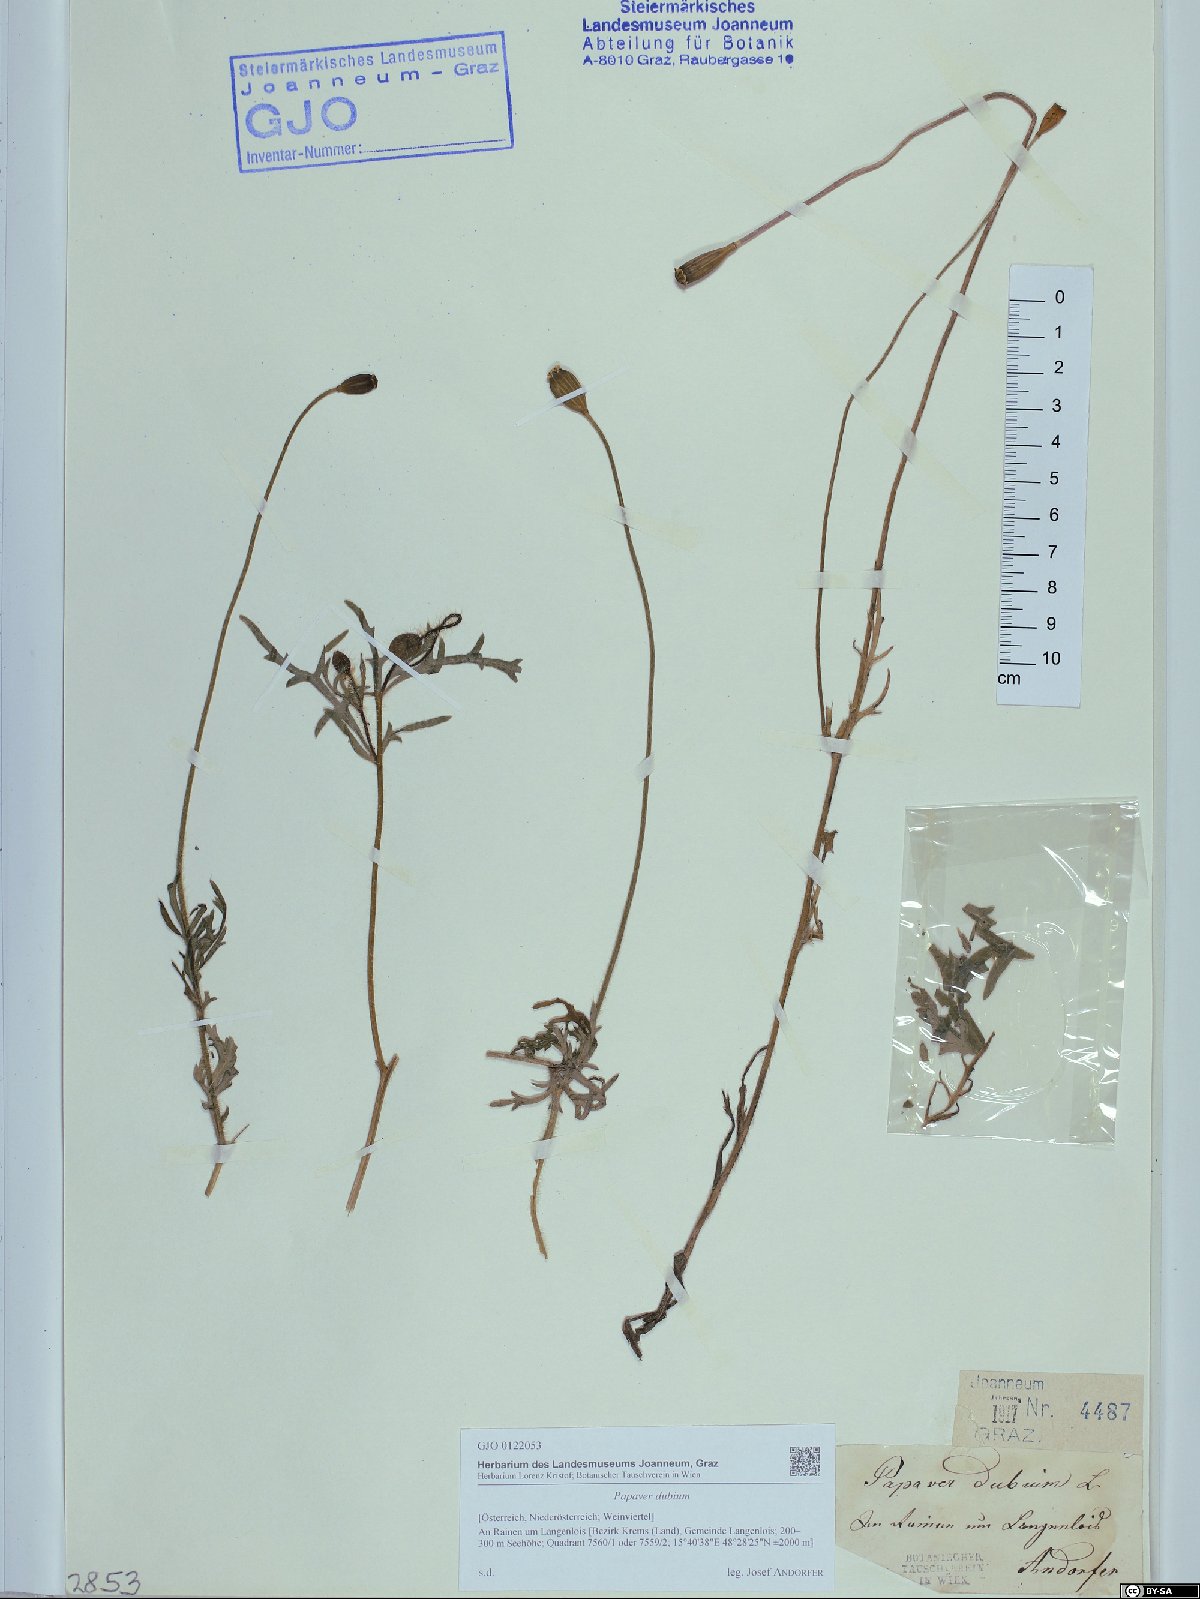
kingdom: Plantae
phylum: Tracheophyta
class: Magnoliopsida
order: Ranunculales
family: Papaveraceae
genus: Papaver
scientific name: Papaver dubium
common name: Long-headed poppy
